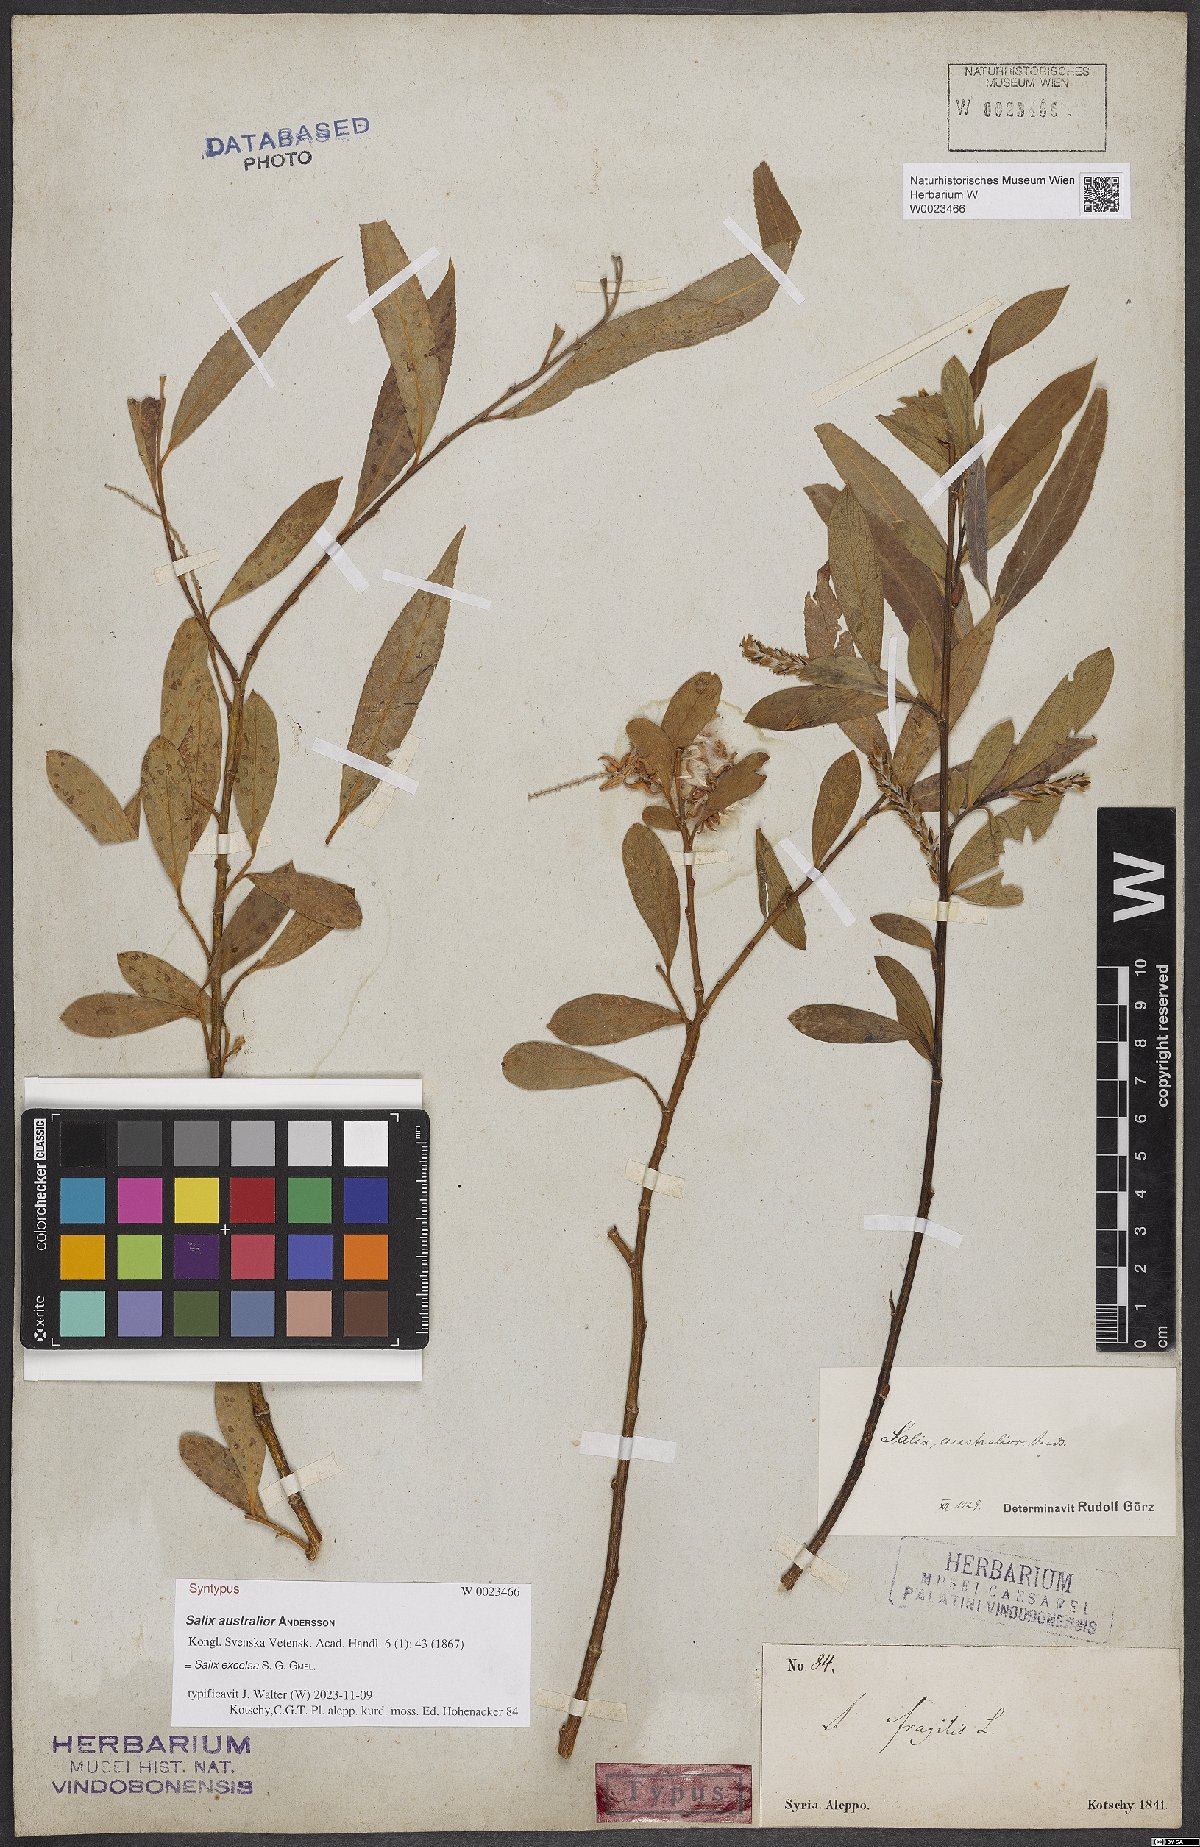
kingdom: Plantae
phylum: Tracheophyta
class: Magnoliopsida
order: Malpighiales
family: Salicaceae
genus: Salix
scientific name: Salix excelsa
